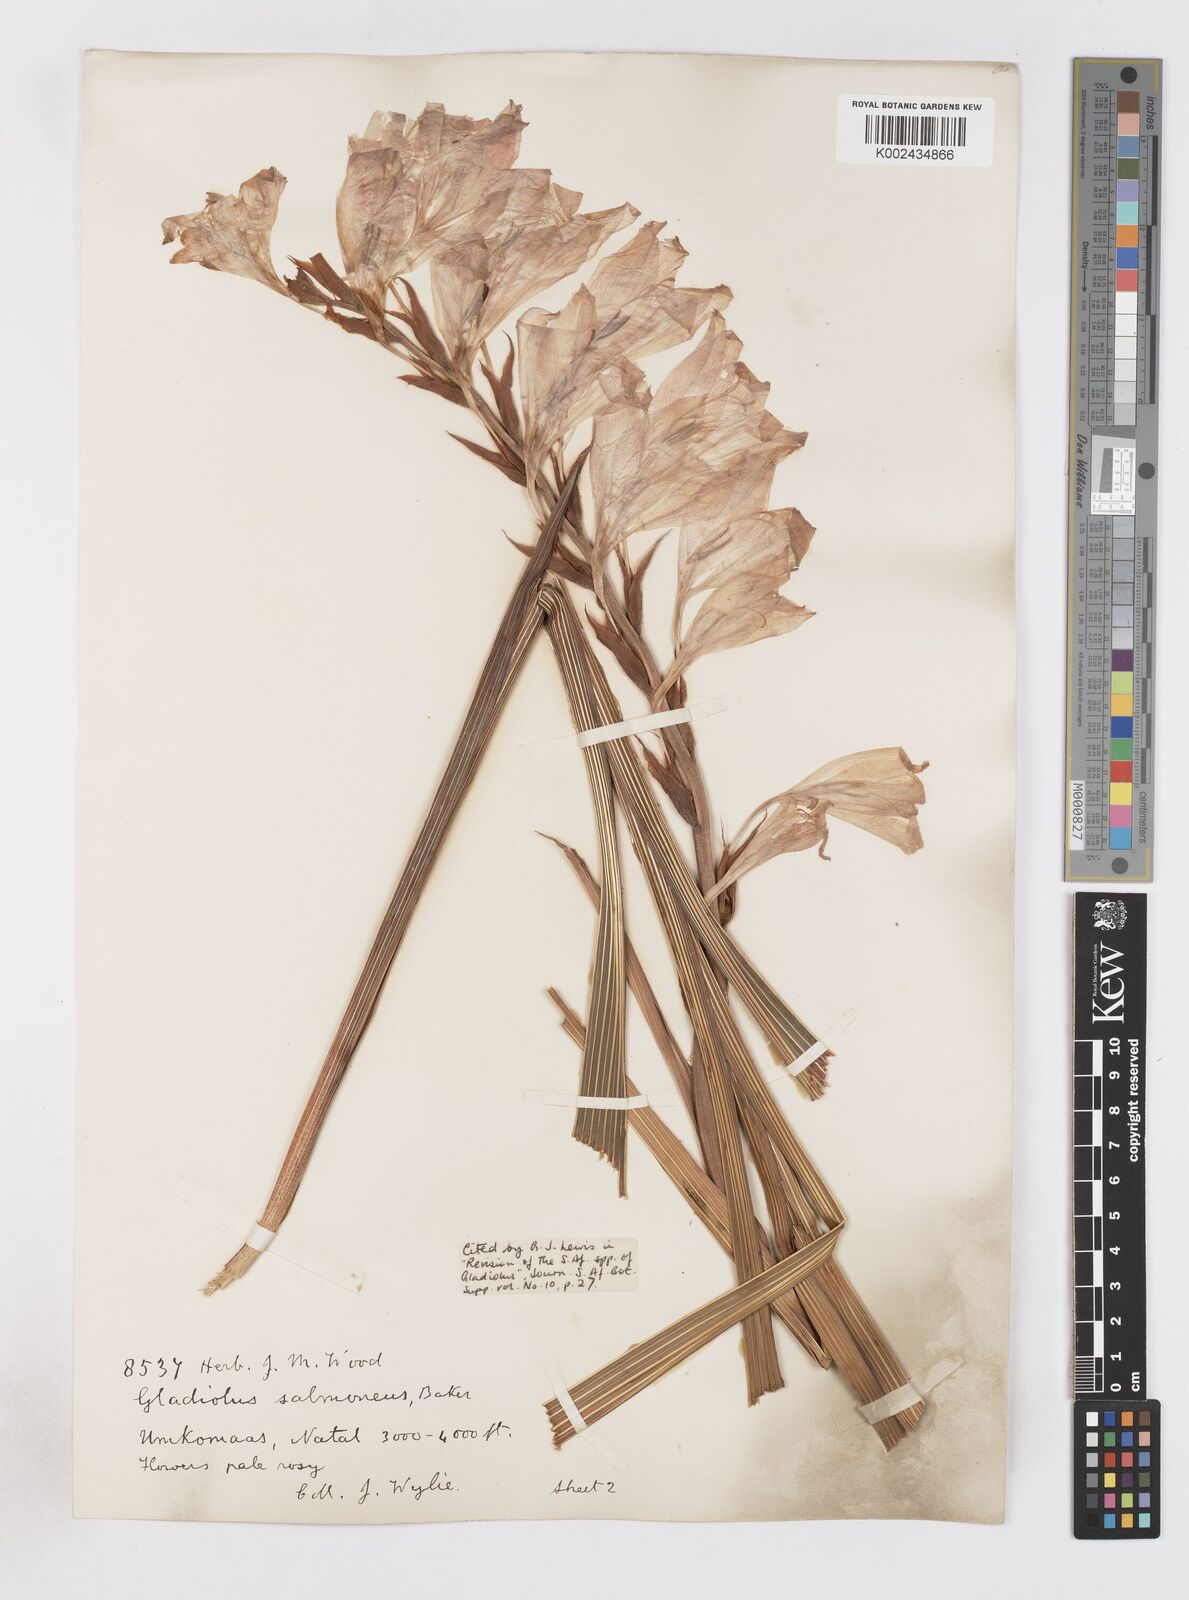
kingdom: Plantae
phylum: Tracheophyta
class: Liliopsida
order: Asparagales
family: Iridaceae
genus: Gladiolus
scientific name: Gladiolus oppositiflorus
